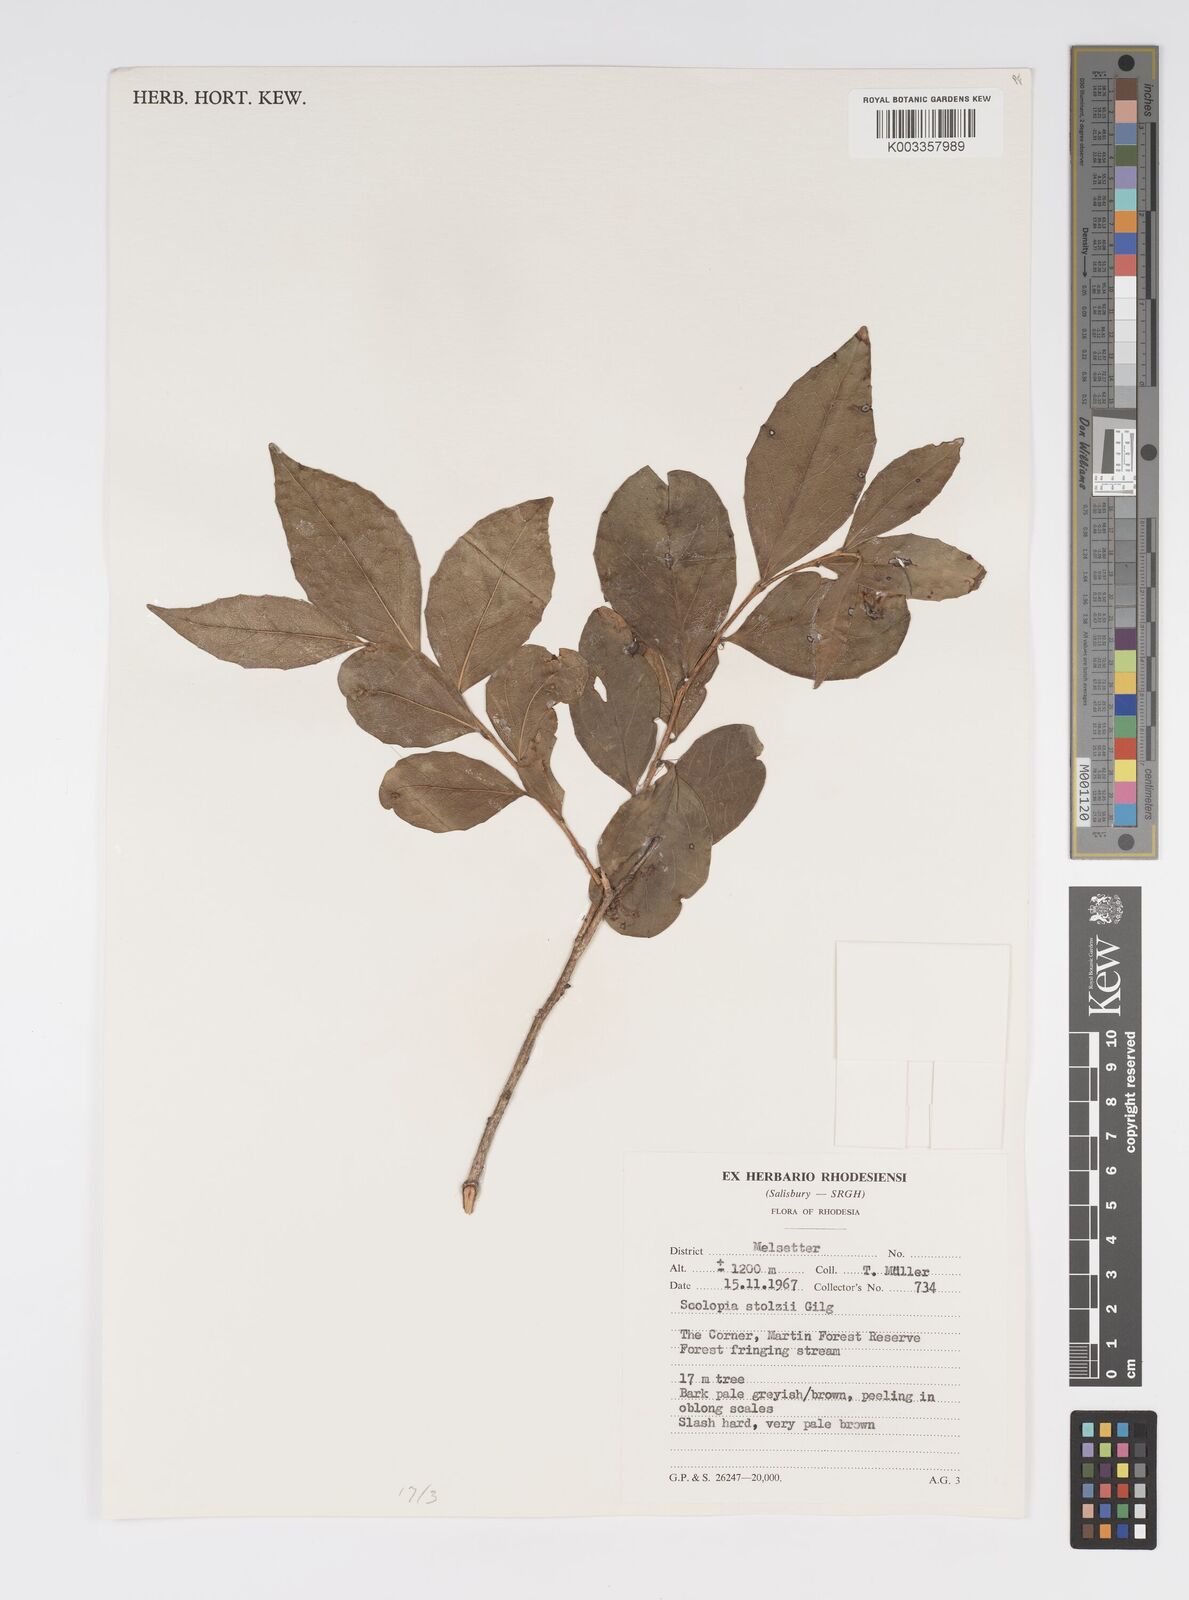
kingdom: Plantae
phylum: Tracheophyta
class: Magnoliopsida
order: Malpighiales
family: Salicaceae
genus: Scolopia
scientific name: Scolopia stolzii
